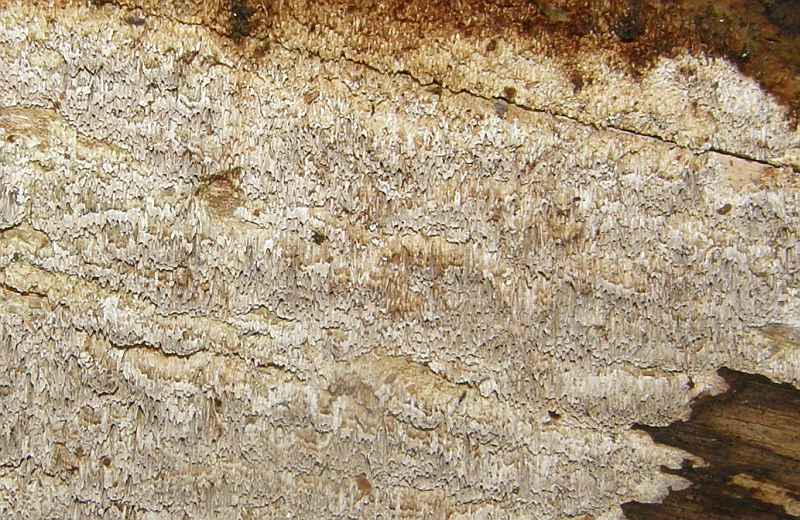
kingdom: Fungi
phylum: Basidiomycota
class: Agaricomycetes
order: Polyporales
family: Fomitopsidaceae
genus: Antrodia
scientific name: Antrodia sinuosa
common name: tømmer-sejporesvamp
